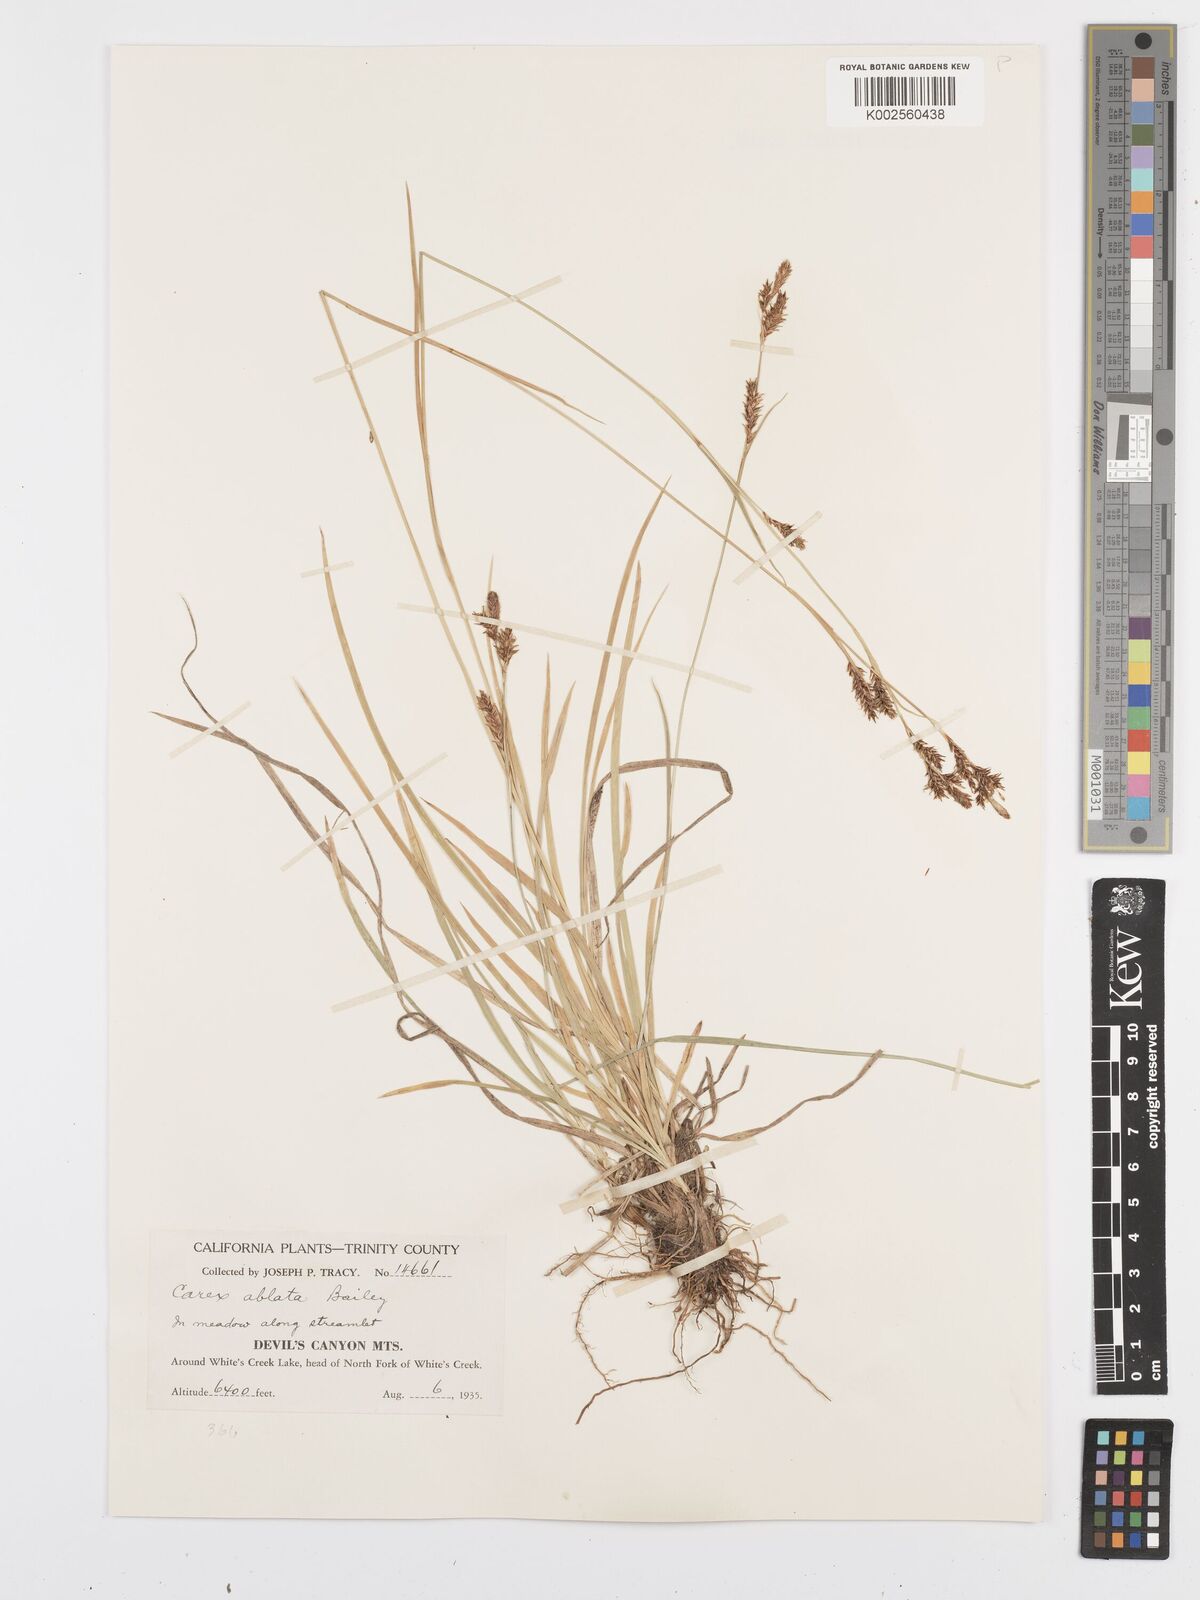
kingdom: Plantae
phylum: Tracheophyta
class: Liliopsida
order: Poales
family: Cyperaceae
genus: Carex
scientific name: Carex luzulina
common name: Spring sedge
